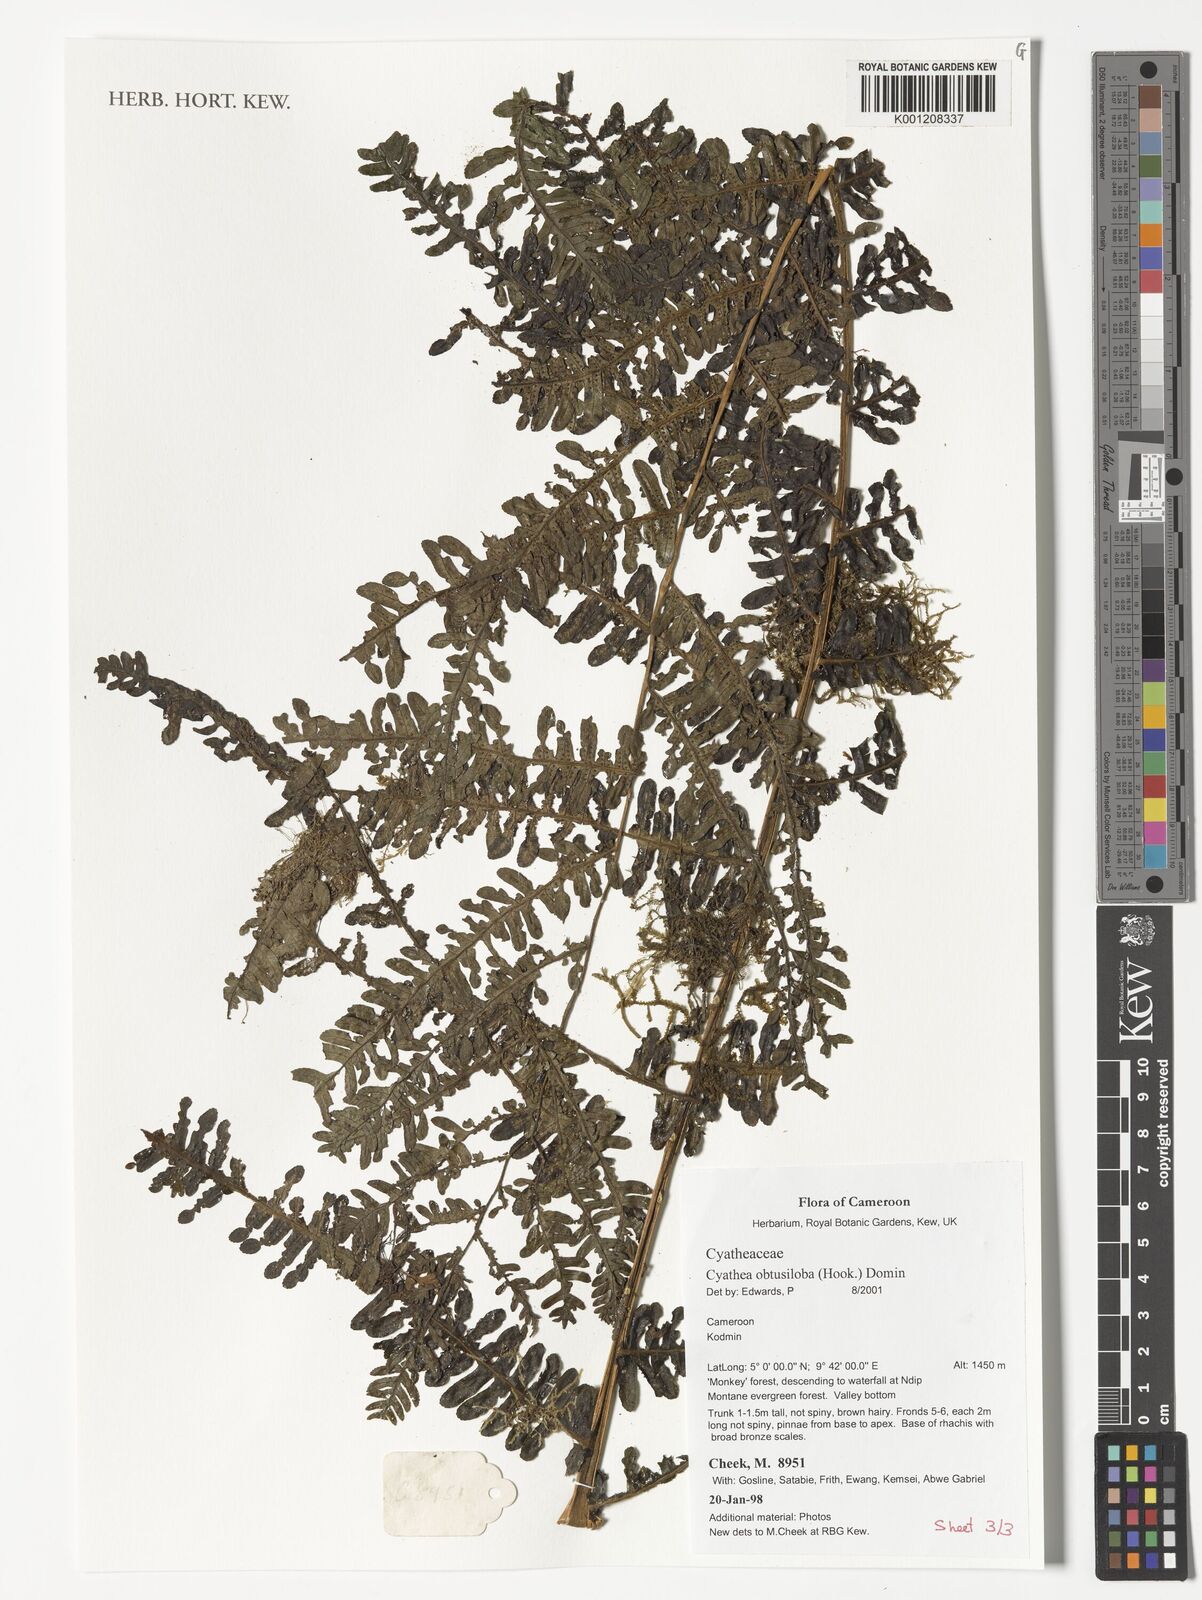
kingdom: Plantae
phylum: Tracheophyta
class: Polypodiopsida
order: Cyatheales
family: Cyatheaceae
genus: Alsophila
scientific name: Alsophila obtusiloba
